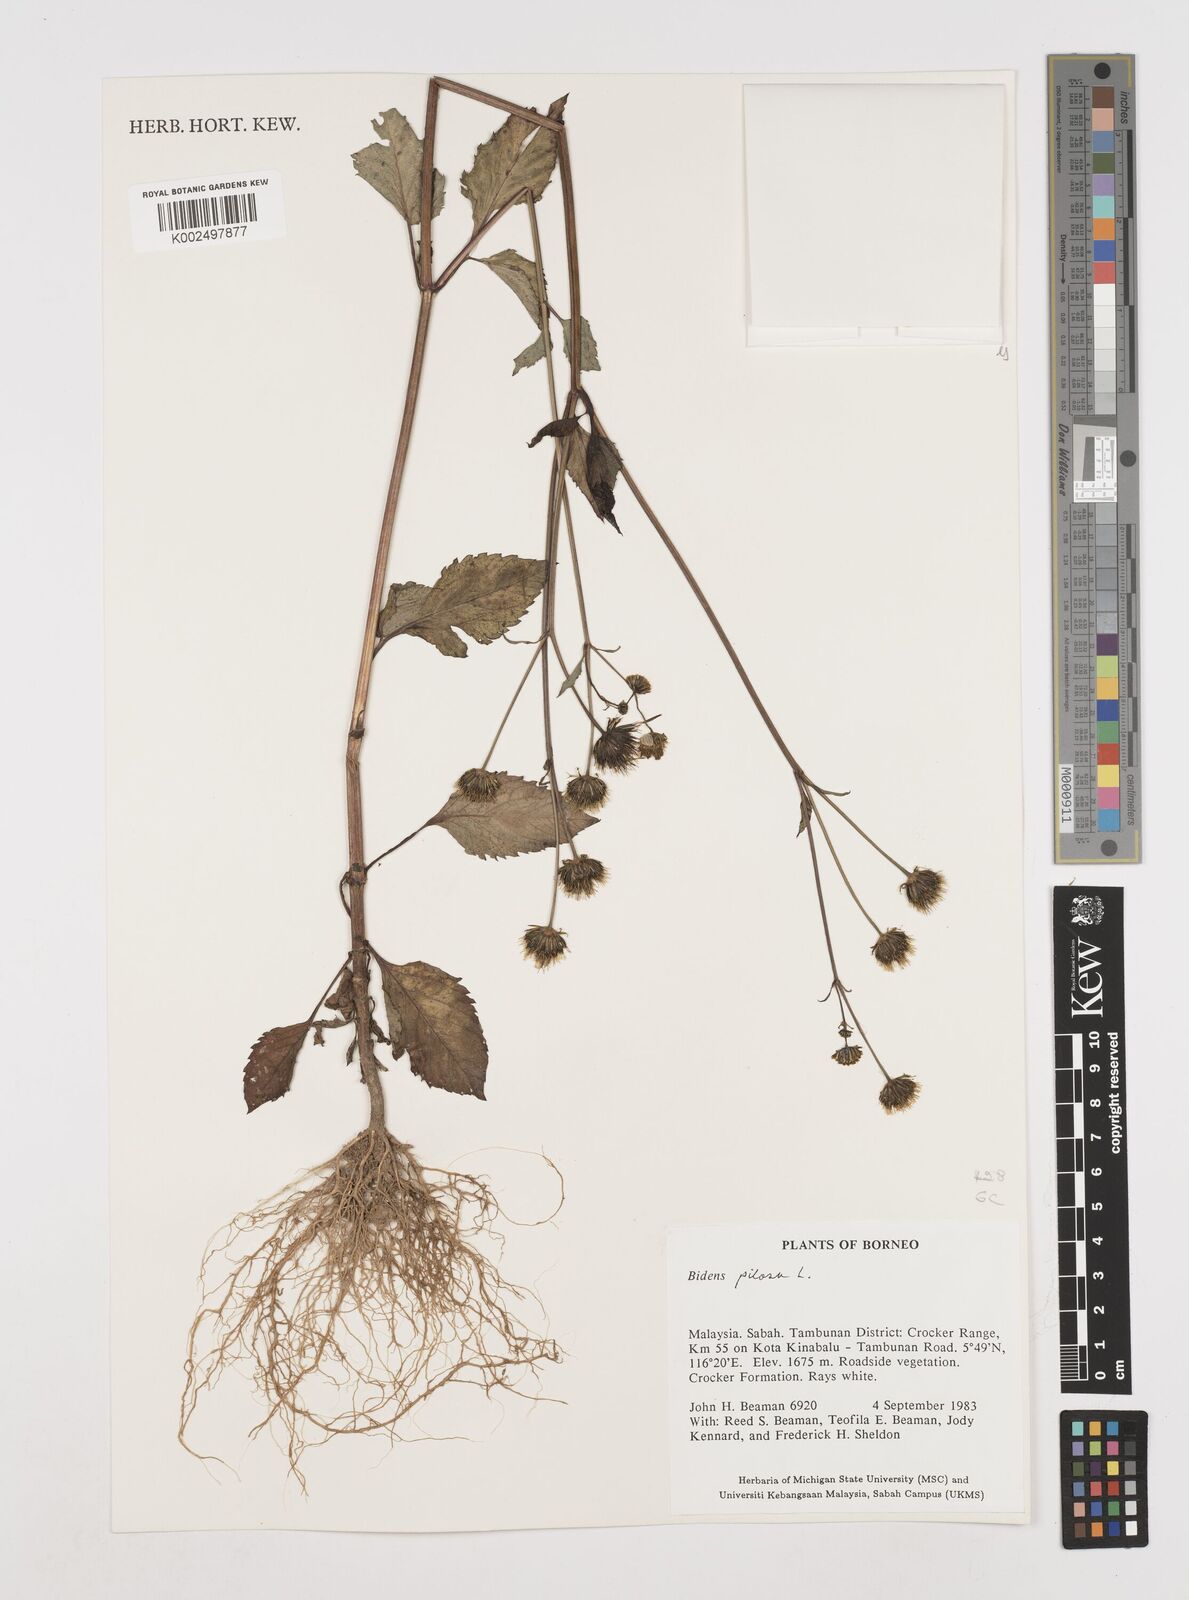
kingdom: Plantae
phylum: Tracheophyta
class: Magnoliopsida
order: Asterales
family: Asteraceae
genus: Bidens
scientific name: Bidens pilosa
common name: Black-jack
